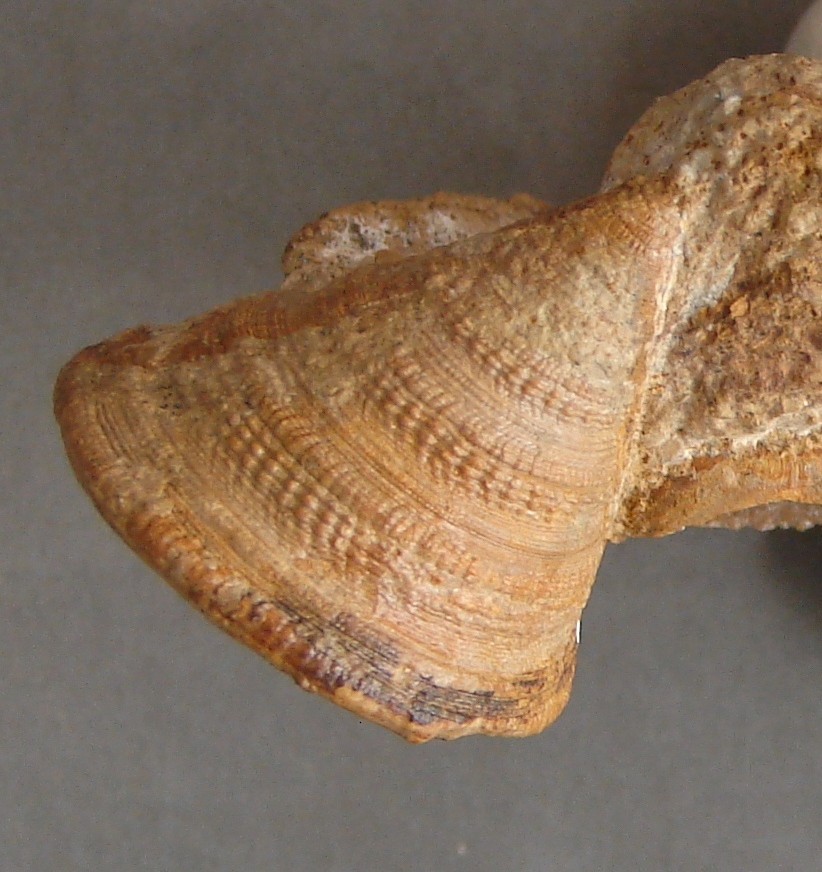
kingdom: Animalia
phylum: Mollusca
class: Gastropoda
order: Pleurotomariida
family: Pleurotomariidae
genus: Pyrgotrochus
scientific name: Pyrgotrochus elongatus
